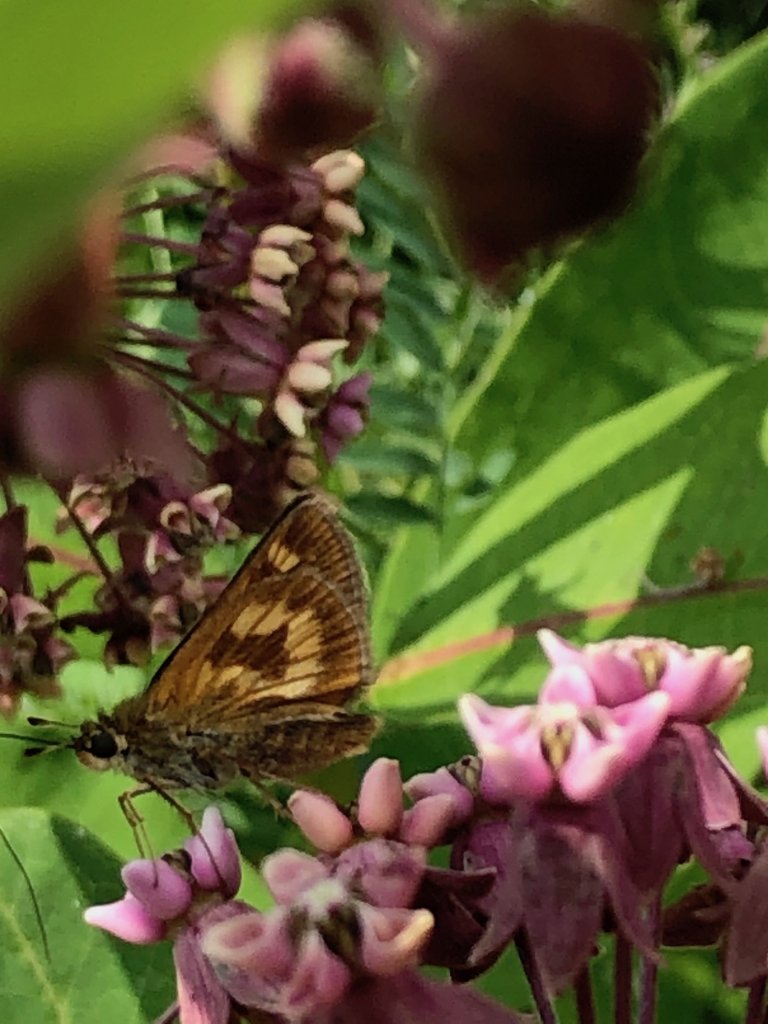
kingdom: Animalia
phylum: Arthropoda
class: Insecta
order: Lepidoptera
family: Hesperiidae
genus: Polites
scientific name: Polites
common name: Long Dash Skipper
